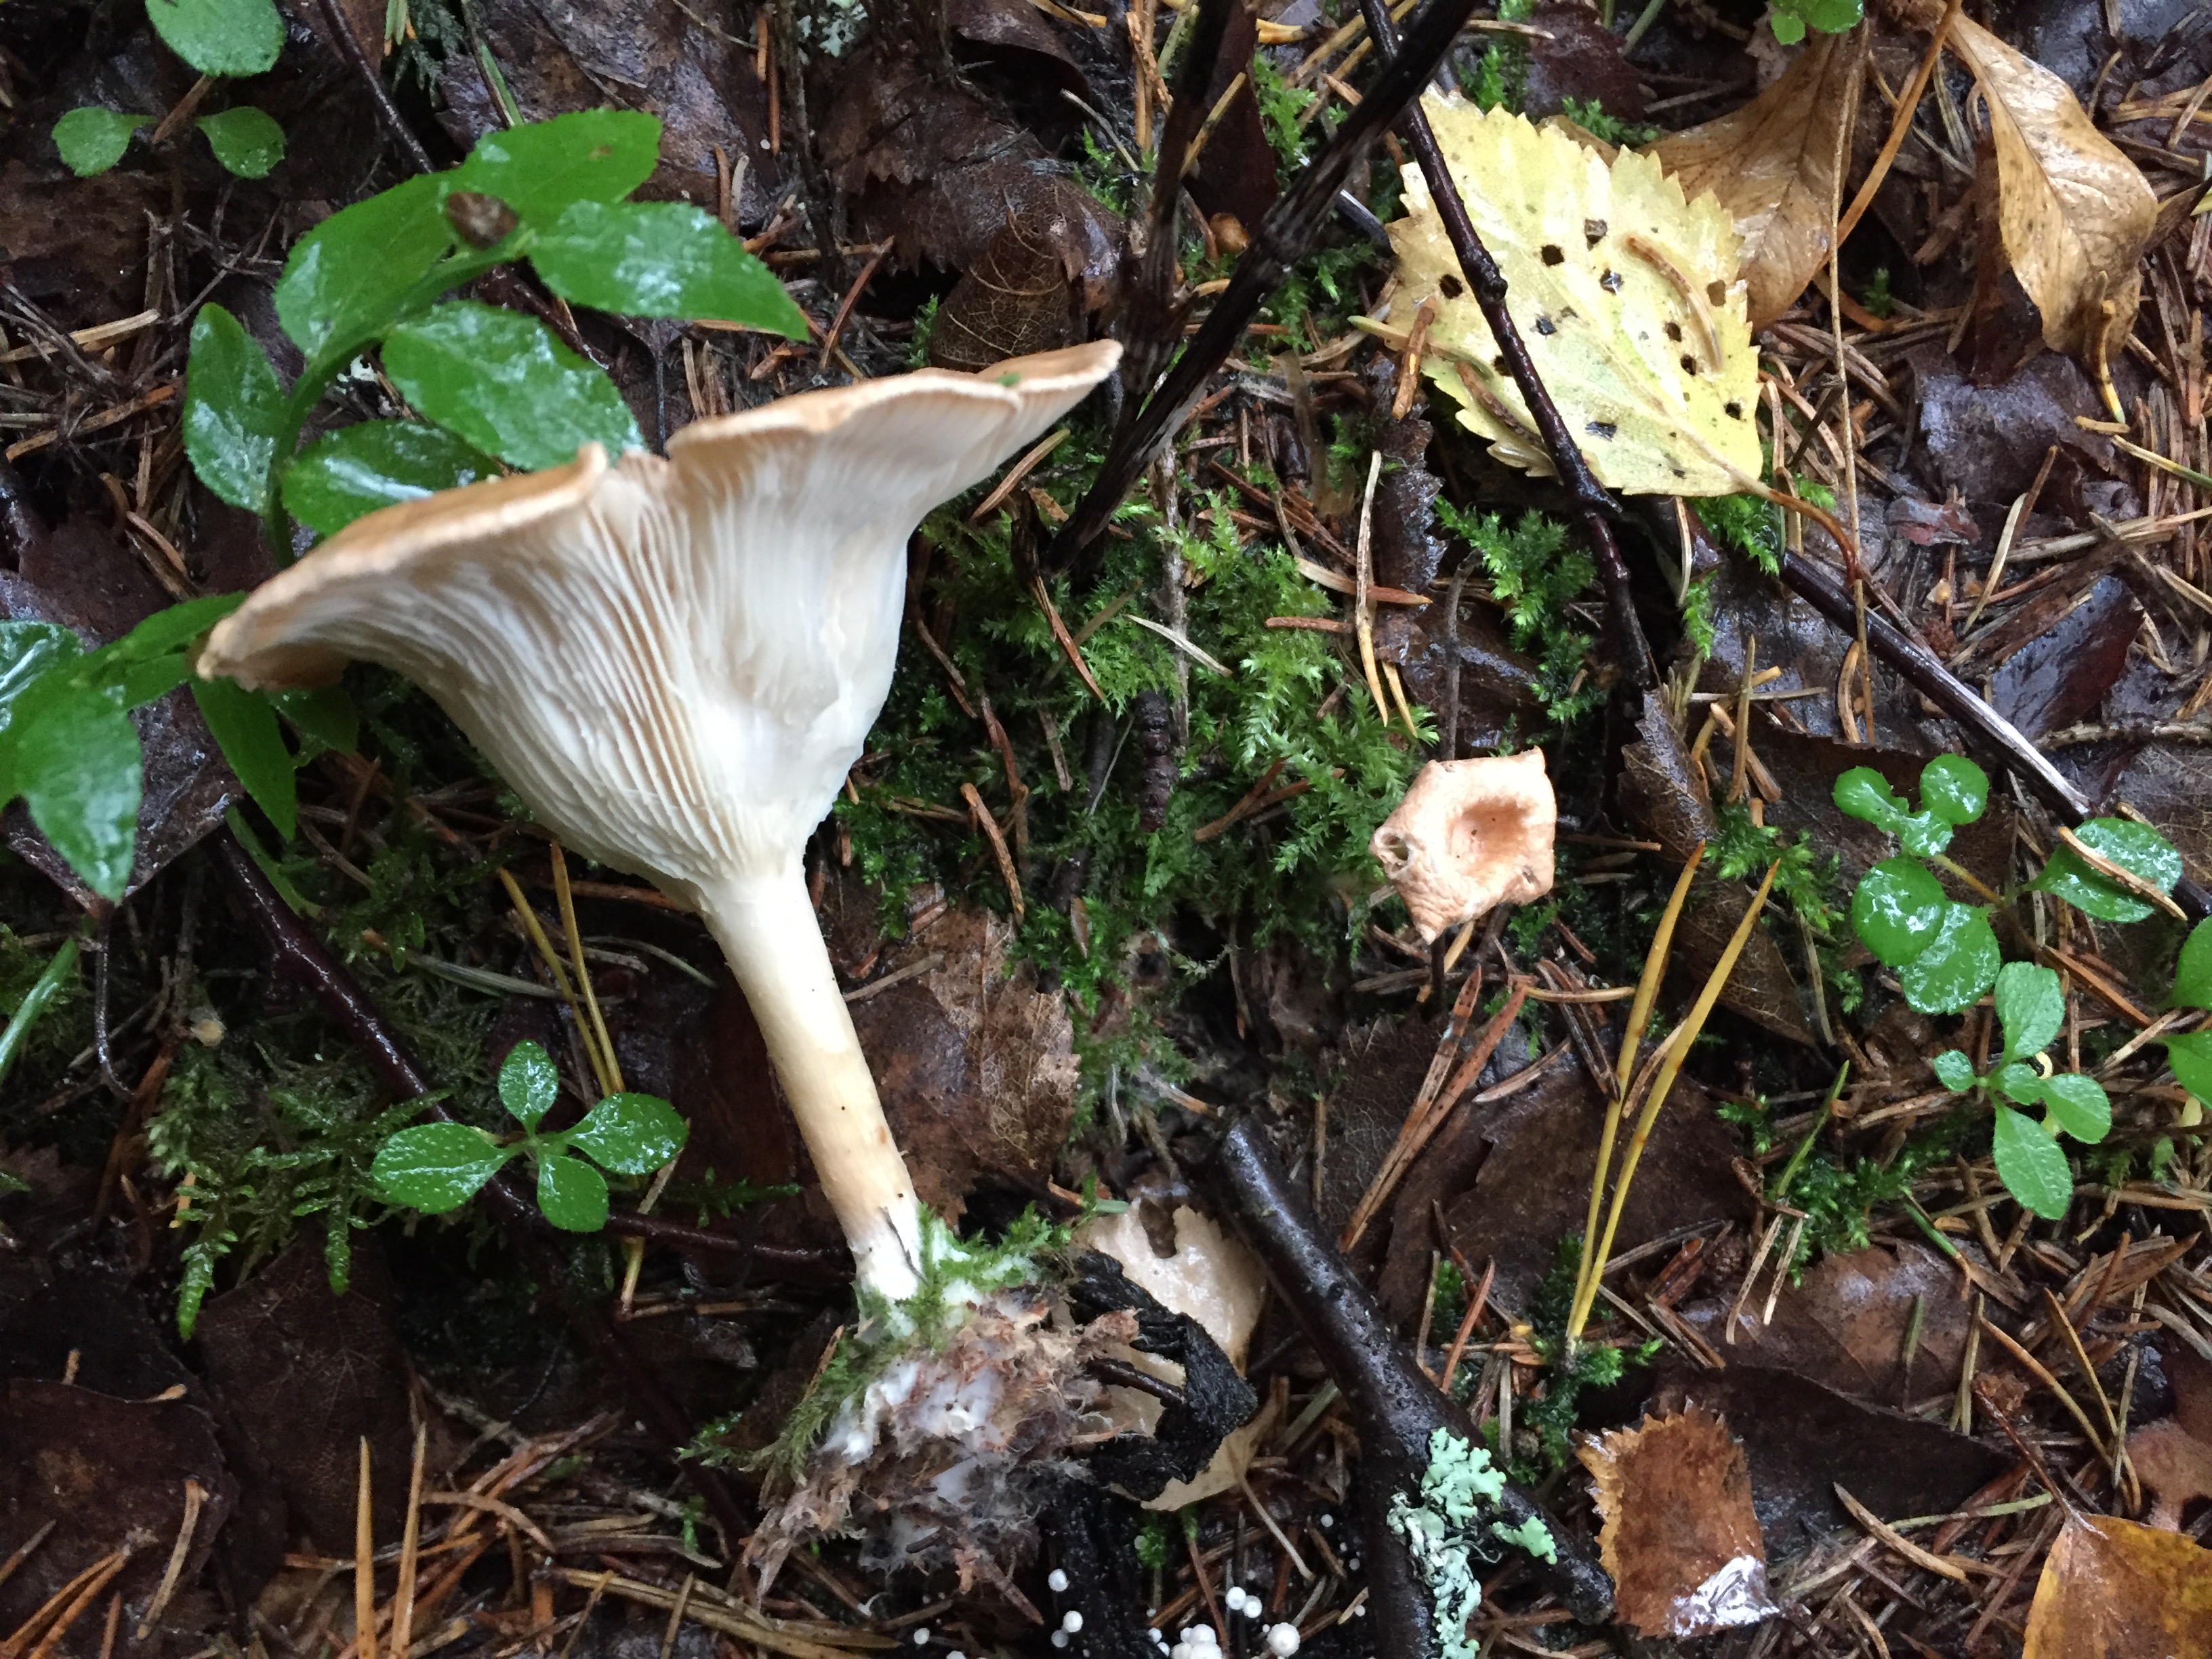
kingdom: Fungi
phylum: Basidiomycota
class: Agaricomycetes
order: Agaricales
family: Tricholomataceae
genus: Infundibulicybe
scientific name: Infundibulicybe gibba
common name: Common funnel
